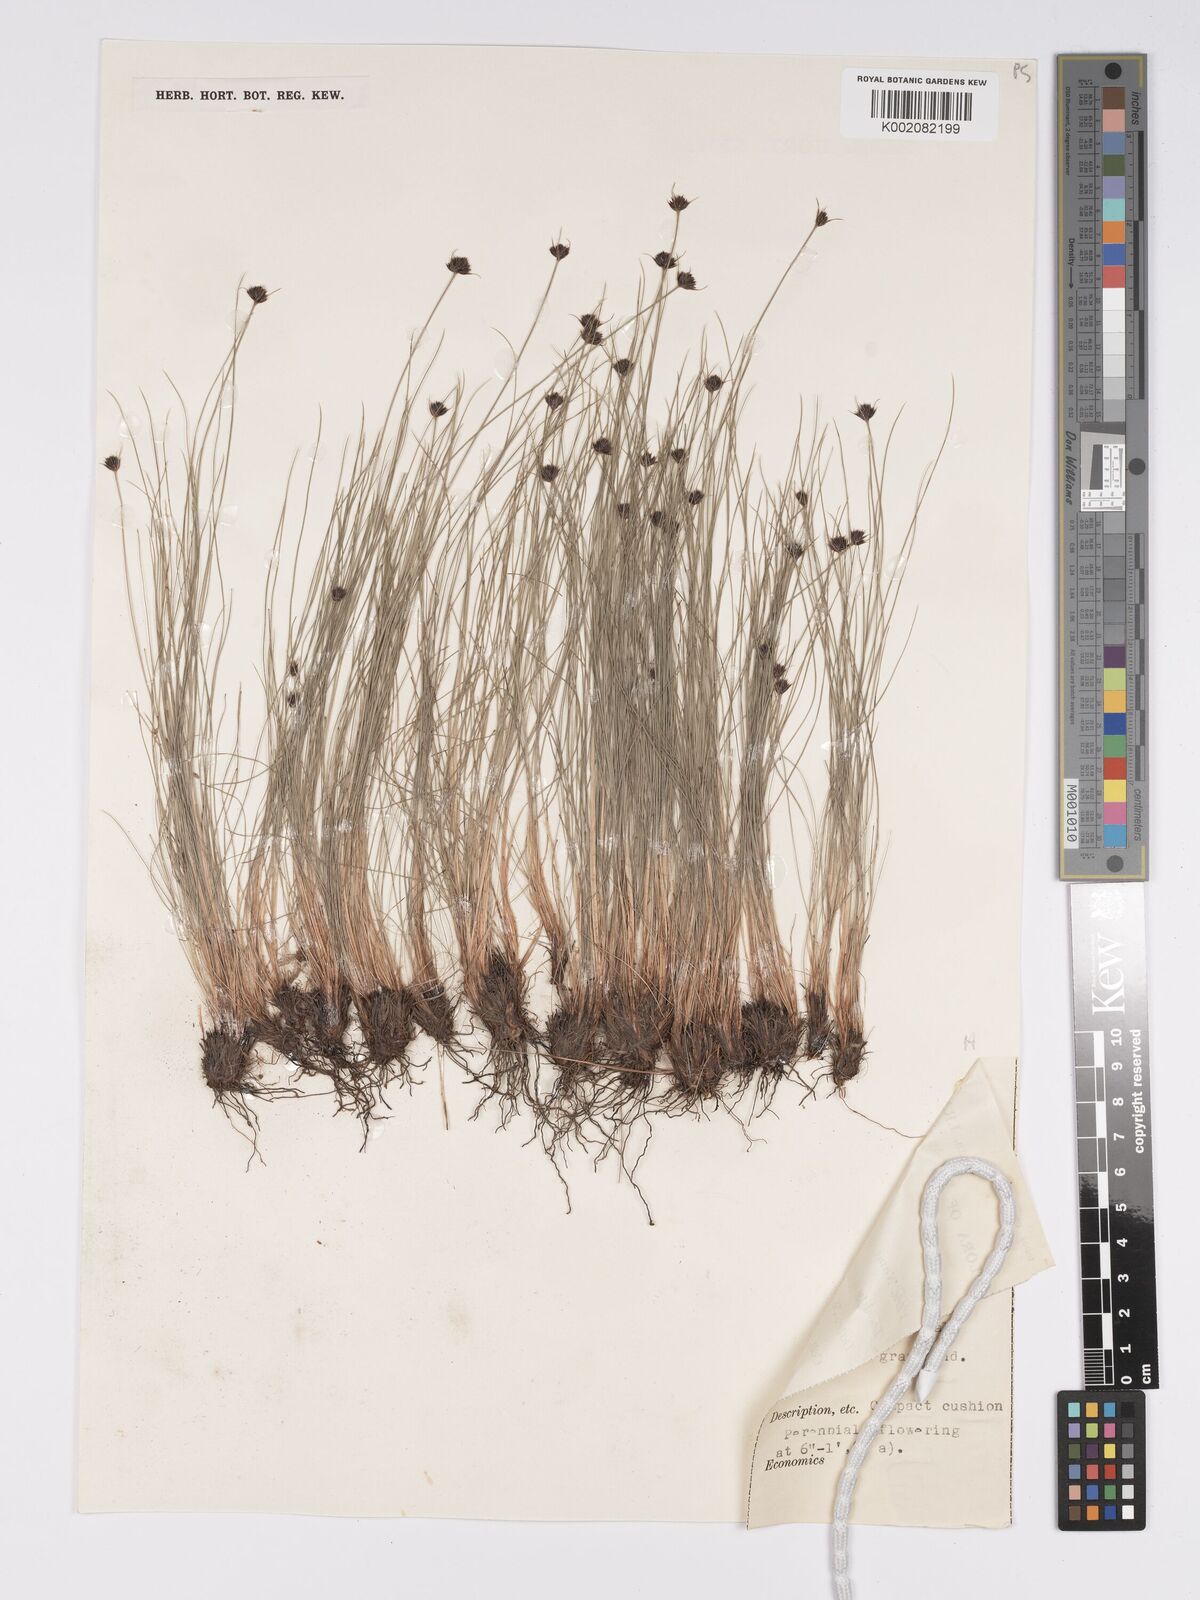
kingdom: Plantae
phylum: Tracheophyta
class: Liliopsida
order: Poales
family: Cyperaceae
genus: Bulbostylis
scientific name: Bulbostylis filamentosa
